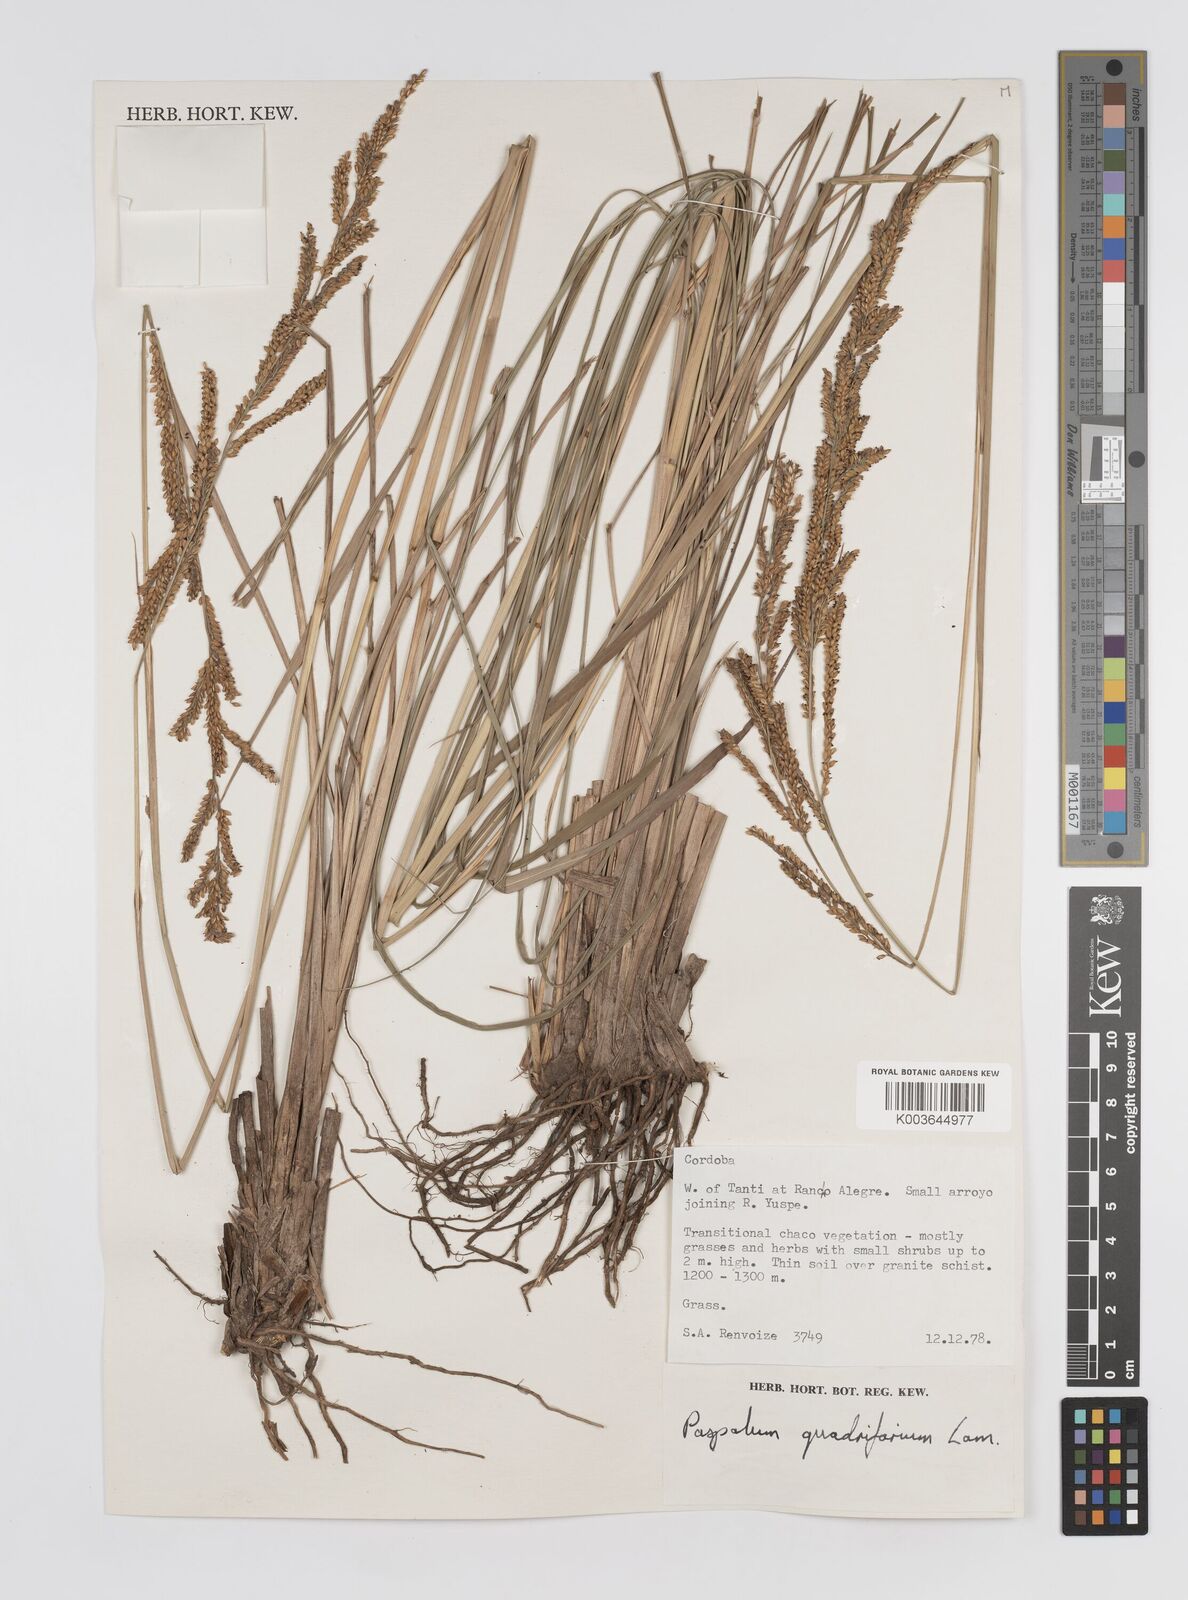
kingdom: Plantae
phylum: Tracheophyta
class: Liliopsida
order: Poales
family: Poaceae
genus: Paspalum
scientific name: Paspalum quadrifarium
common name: Tussock paspalum
